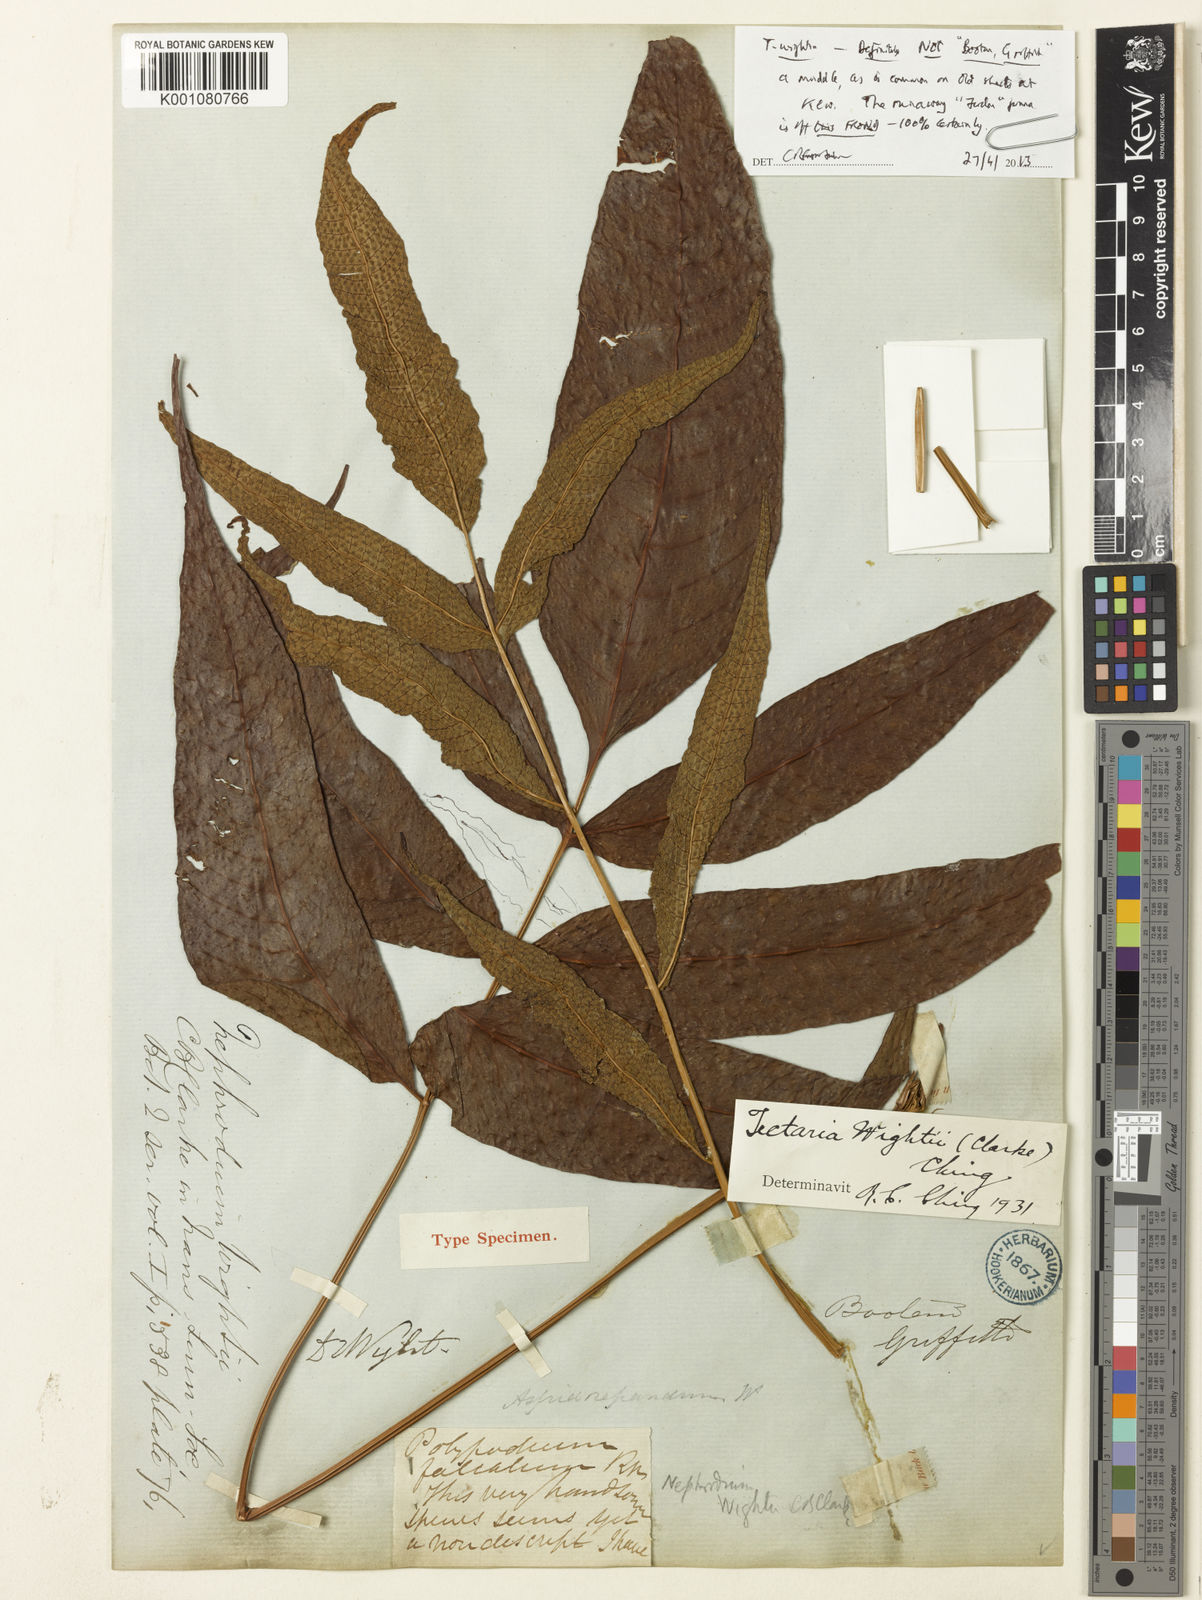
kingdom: Plantae
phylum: Tracheophyta
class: Polypodiopsida
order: Polypodiales
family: Tectariaceae
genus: Tectaria
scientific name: Tectaria wightii
